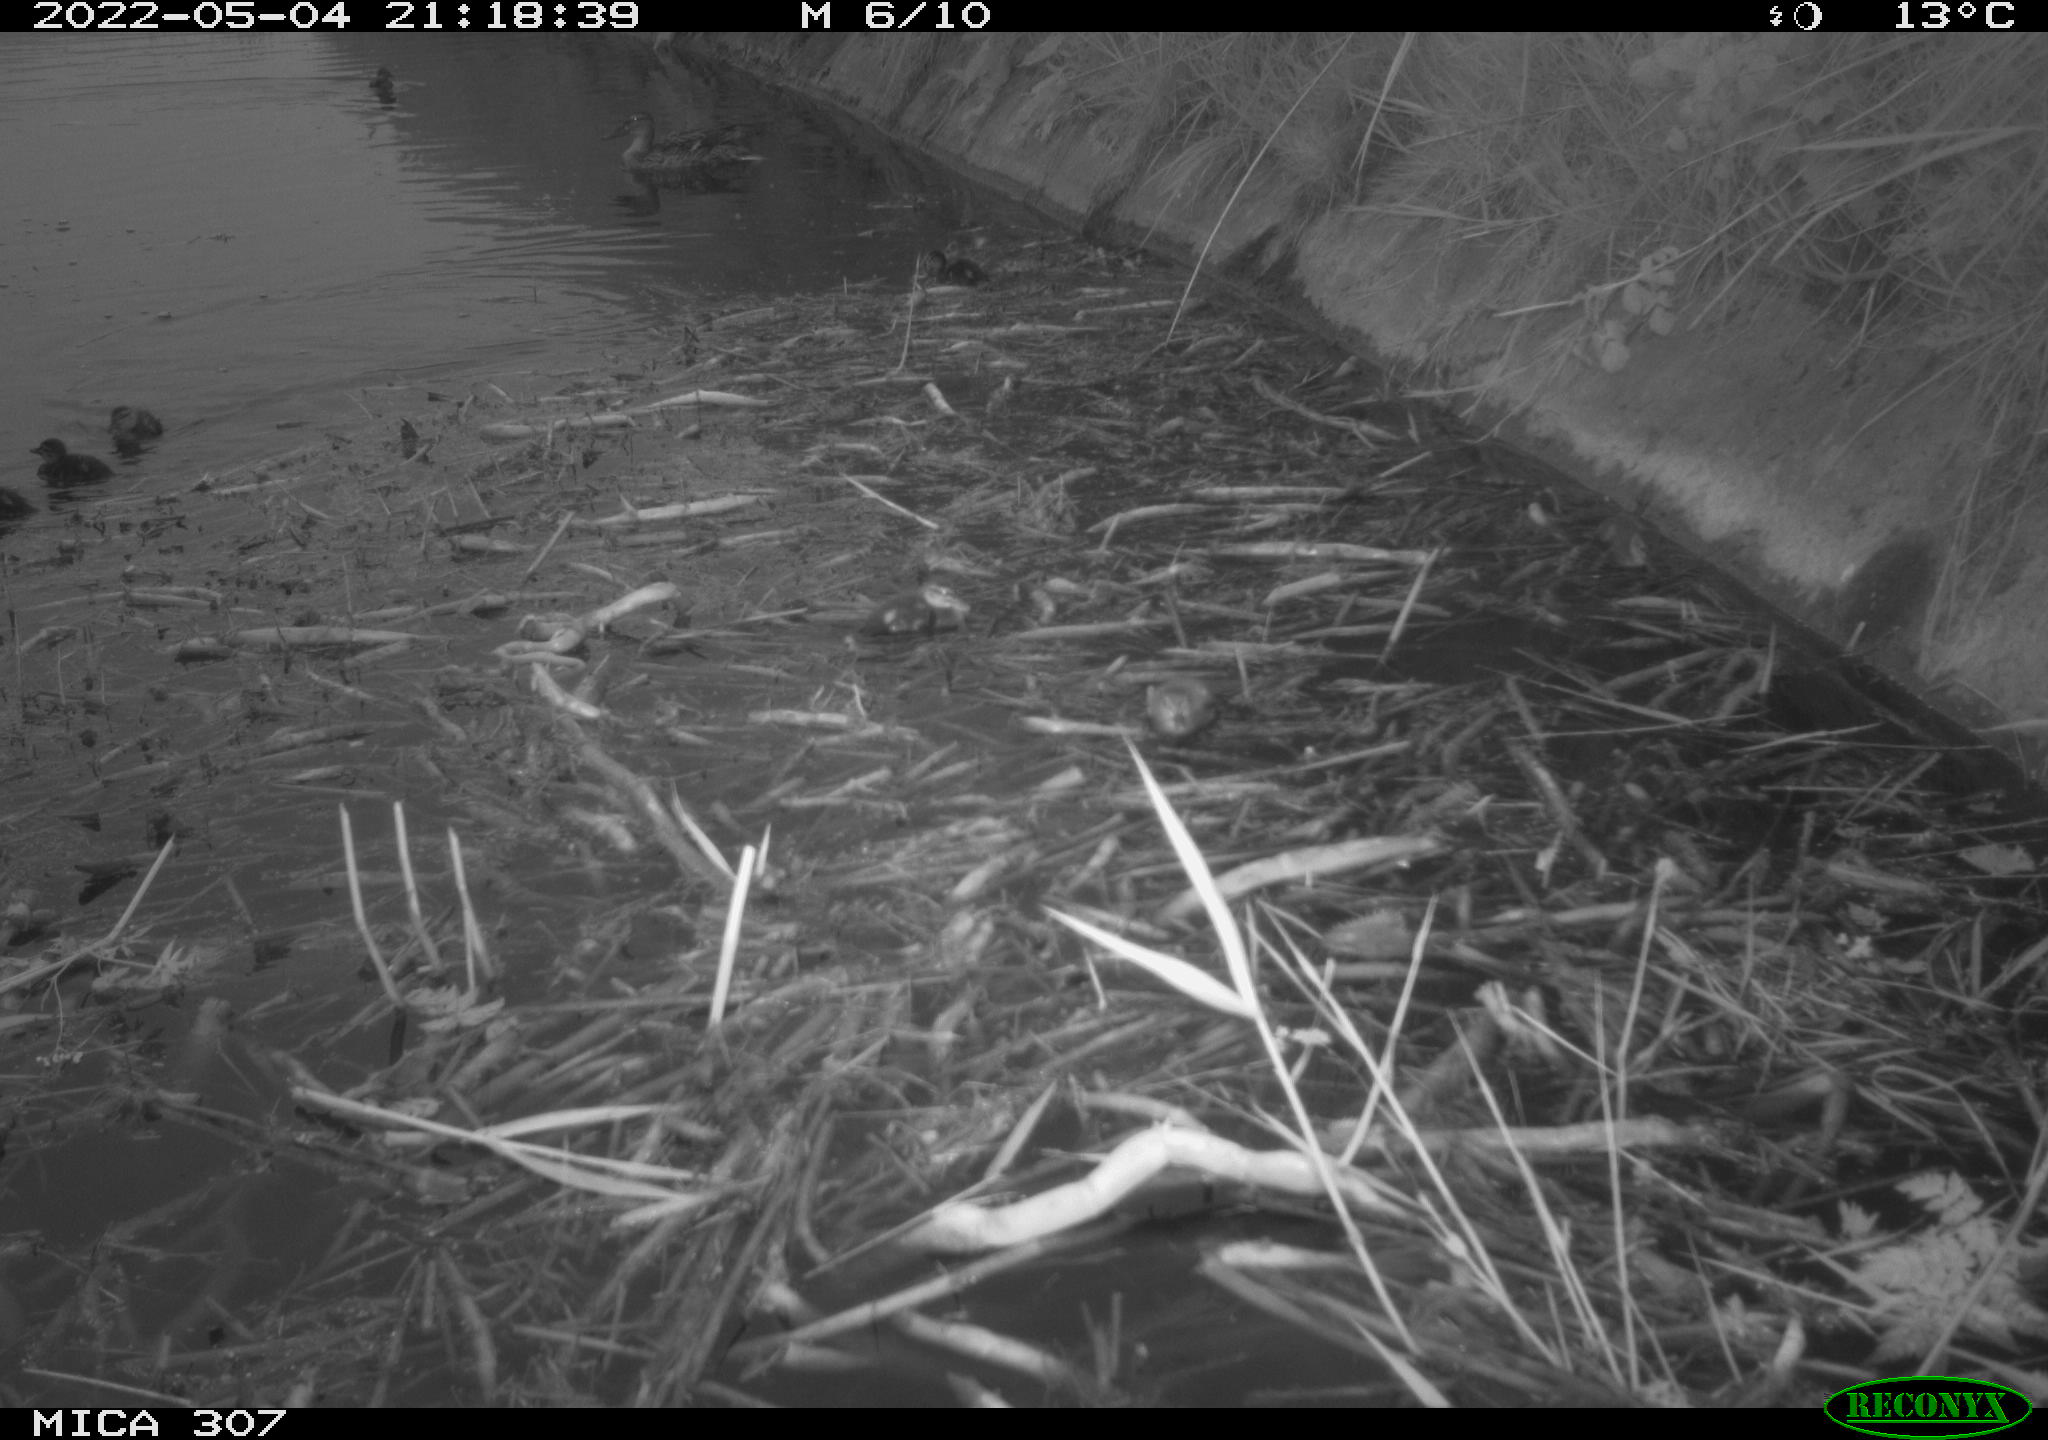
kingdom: Animalia
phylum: Chordata
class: Aves
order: Anseriformes
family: Anatidae
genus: Anas
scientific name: Anas platyrhynchos
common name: Mallard
